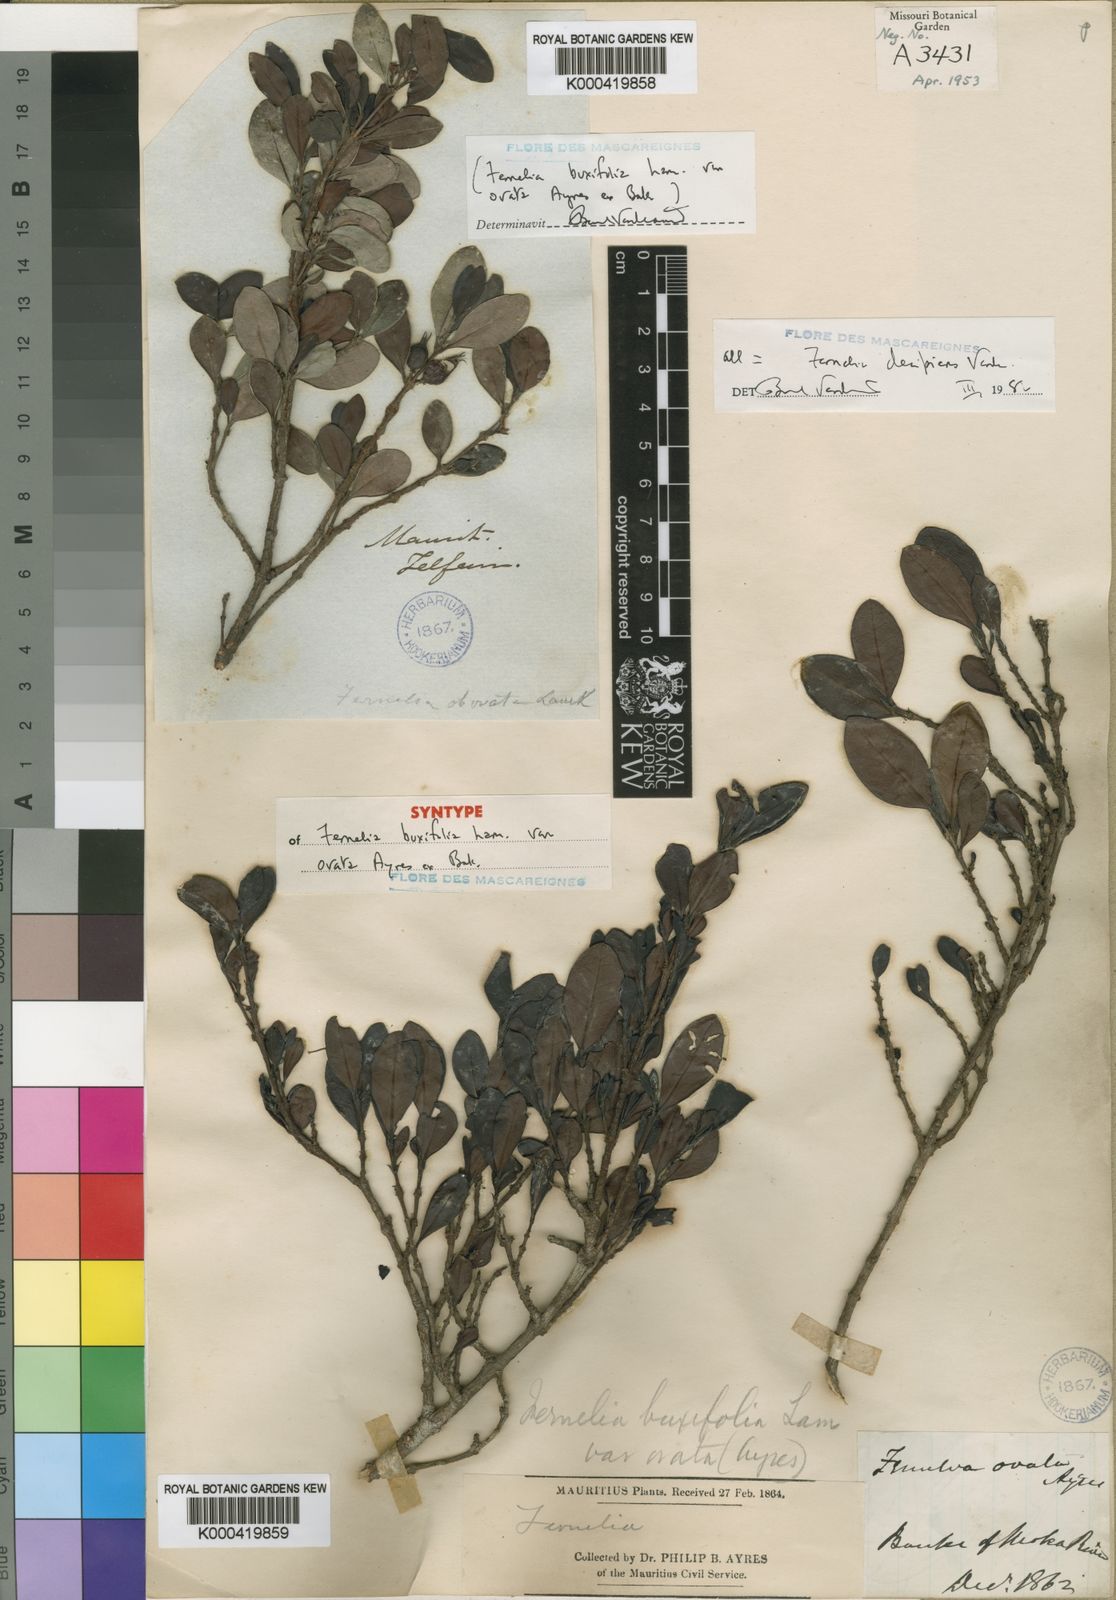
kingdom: Plantae
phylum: Tracheophyta
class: Magnoliopsida
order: Gentianales
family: Rubiaceae
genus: Fernelia
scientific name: Fernelia buxifolia
